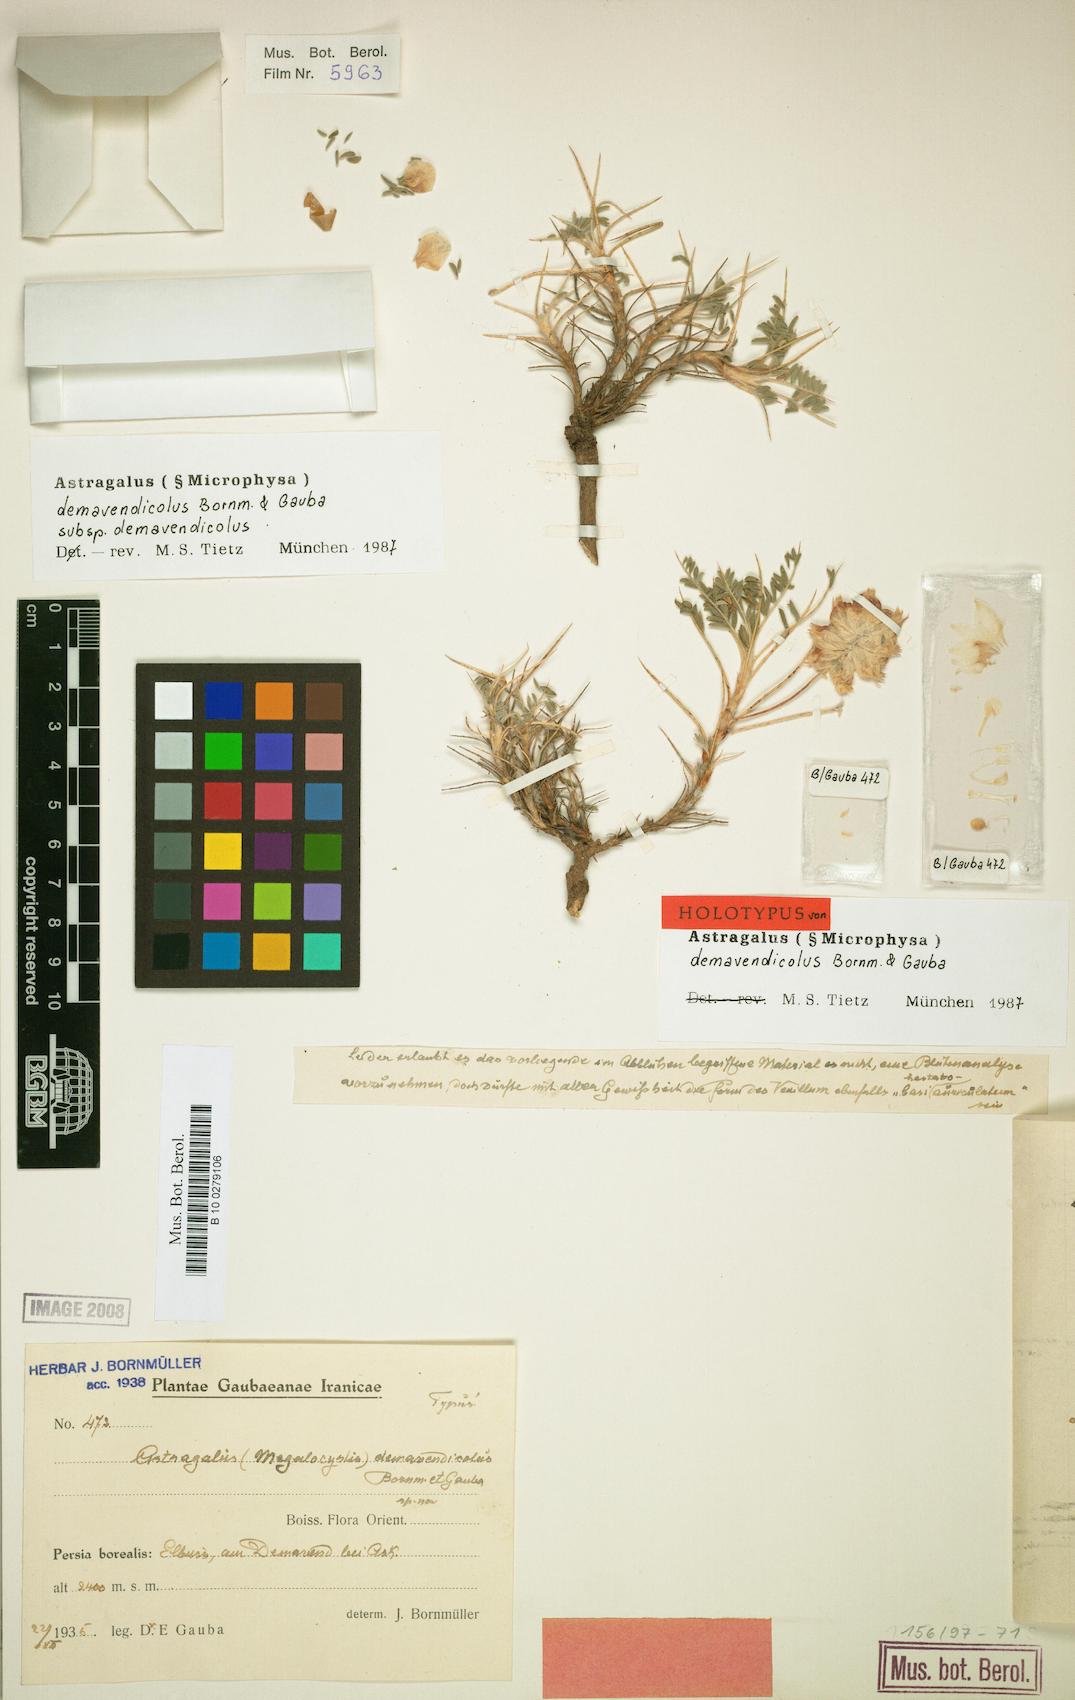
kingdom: Plantae
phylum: Tracheophyta
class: Magnoliopsida
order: Fabales
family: Fabaceae
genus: Astragalus
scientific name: Astragalus demavendicola
